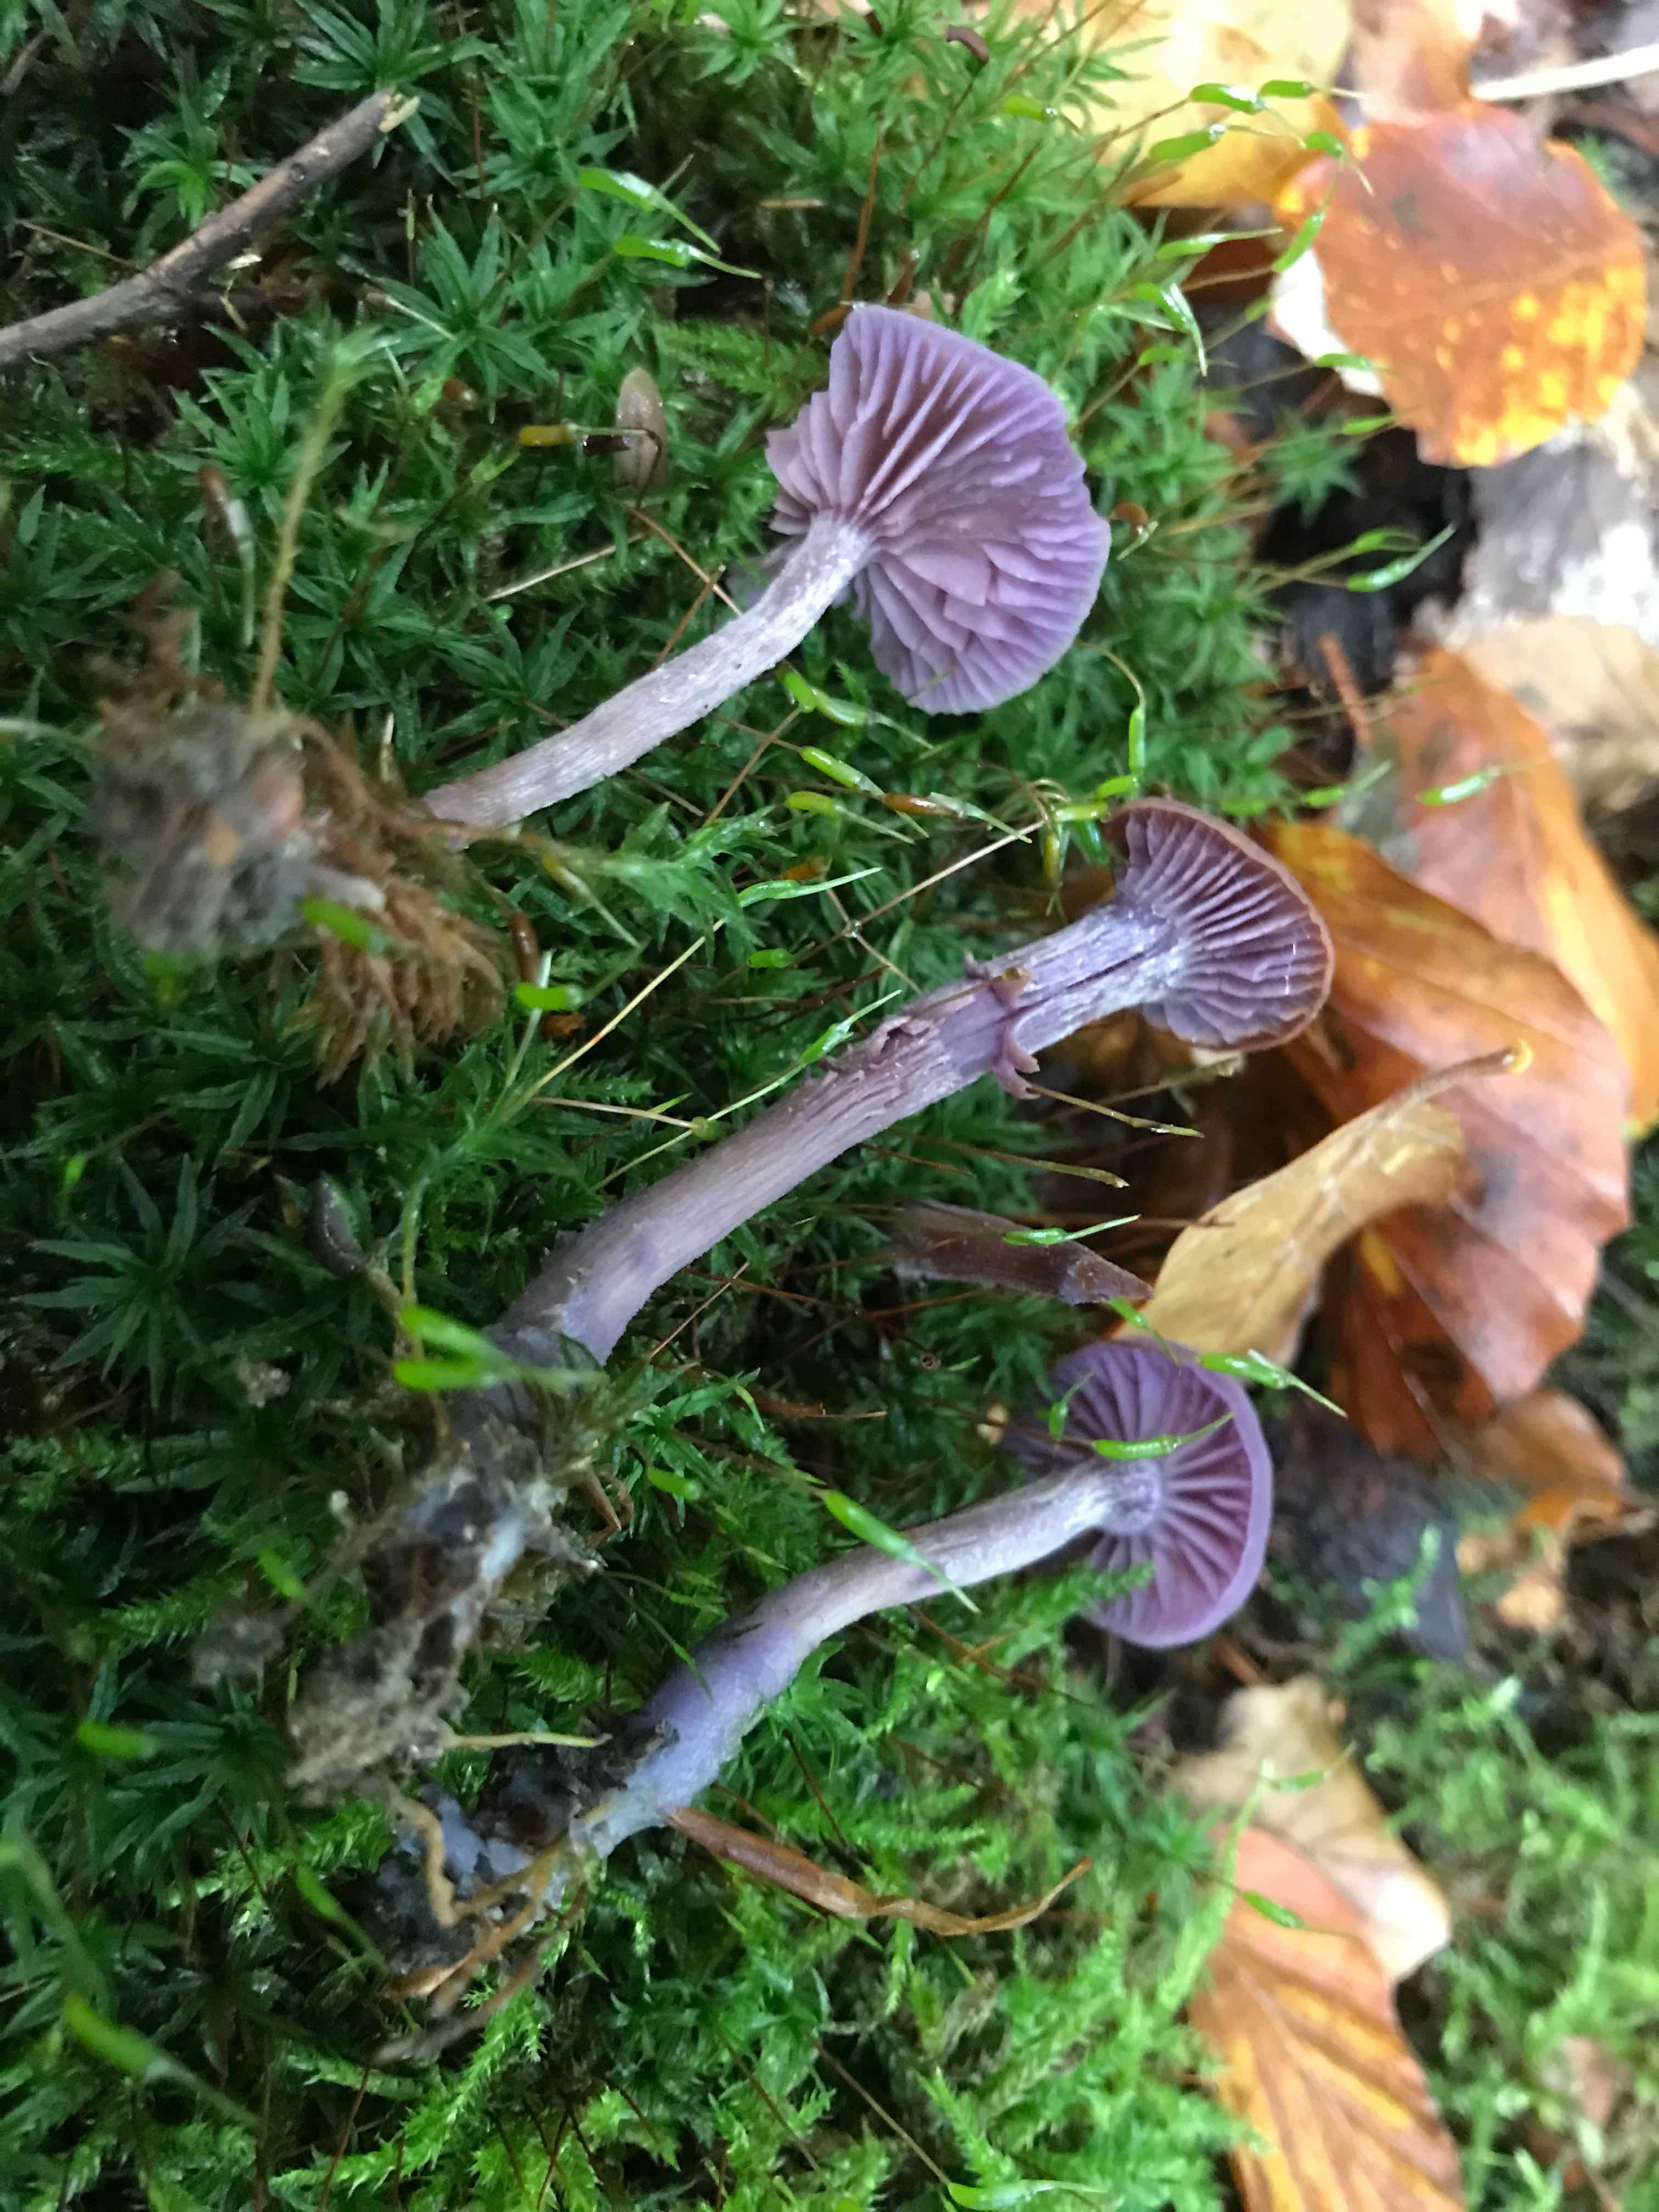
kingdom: Fungi
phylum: Basidiomycota
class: Agaricomycetes
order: Agaricales
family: Hydnangiaceae
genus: Laccaria
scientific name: Laccaria amethystina
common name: violet ametysthat
